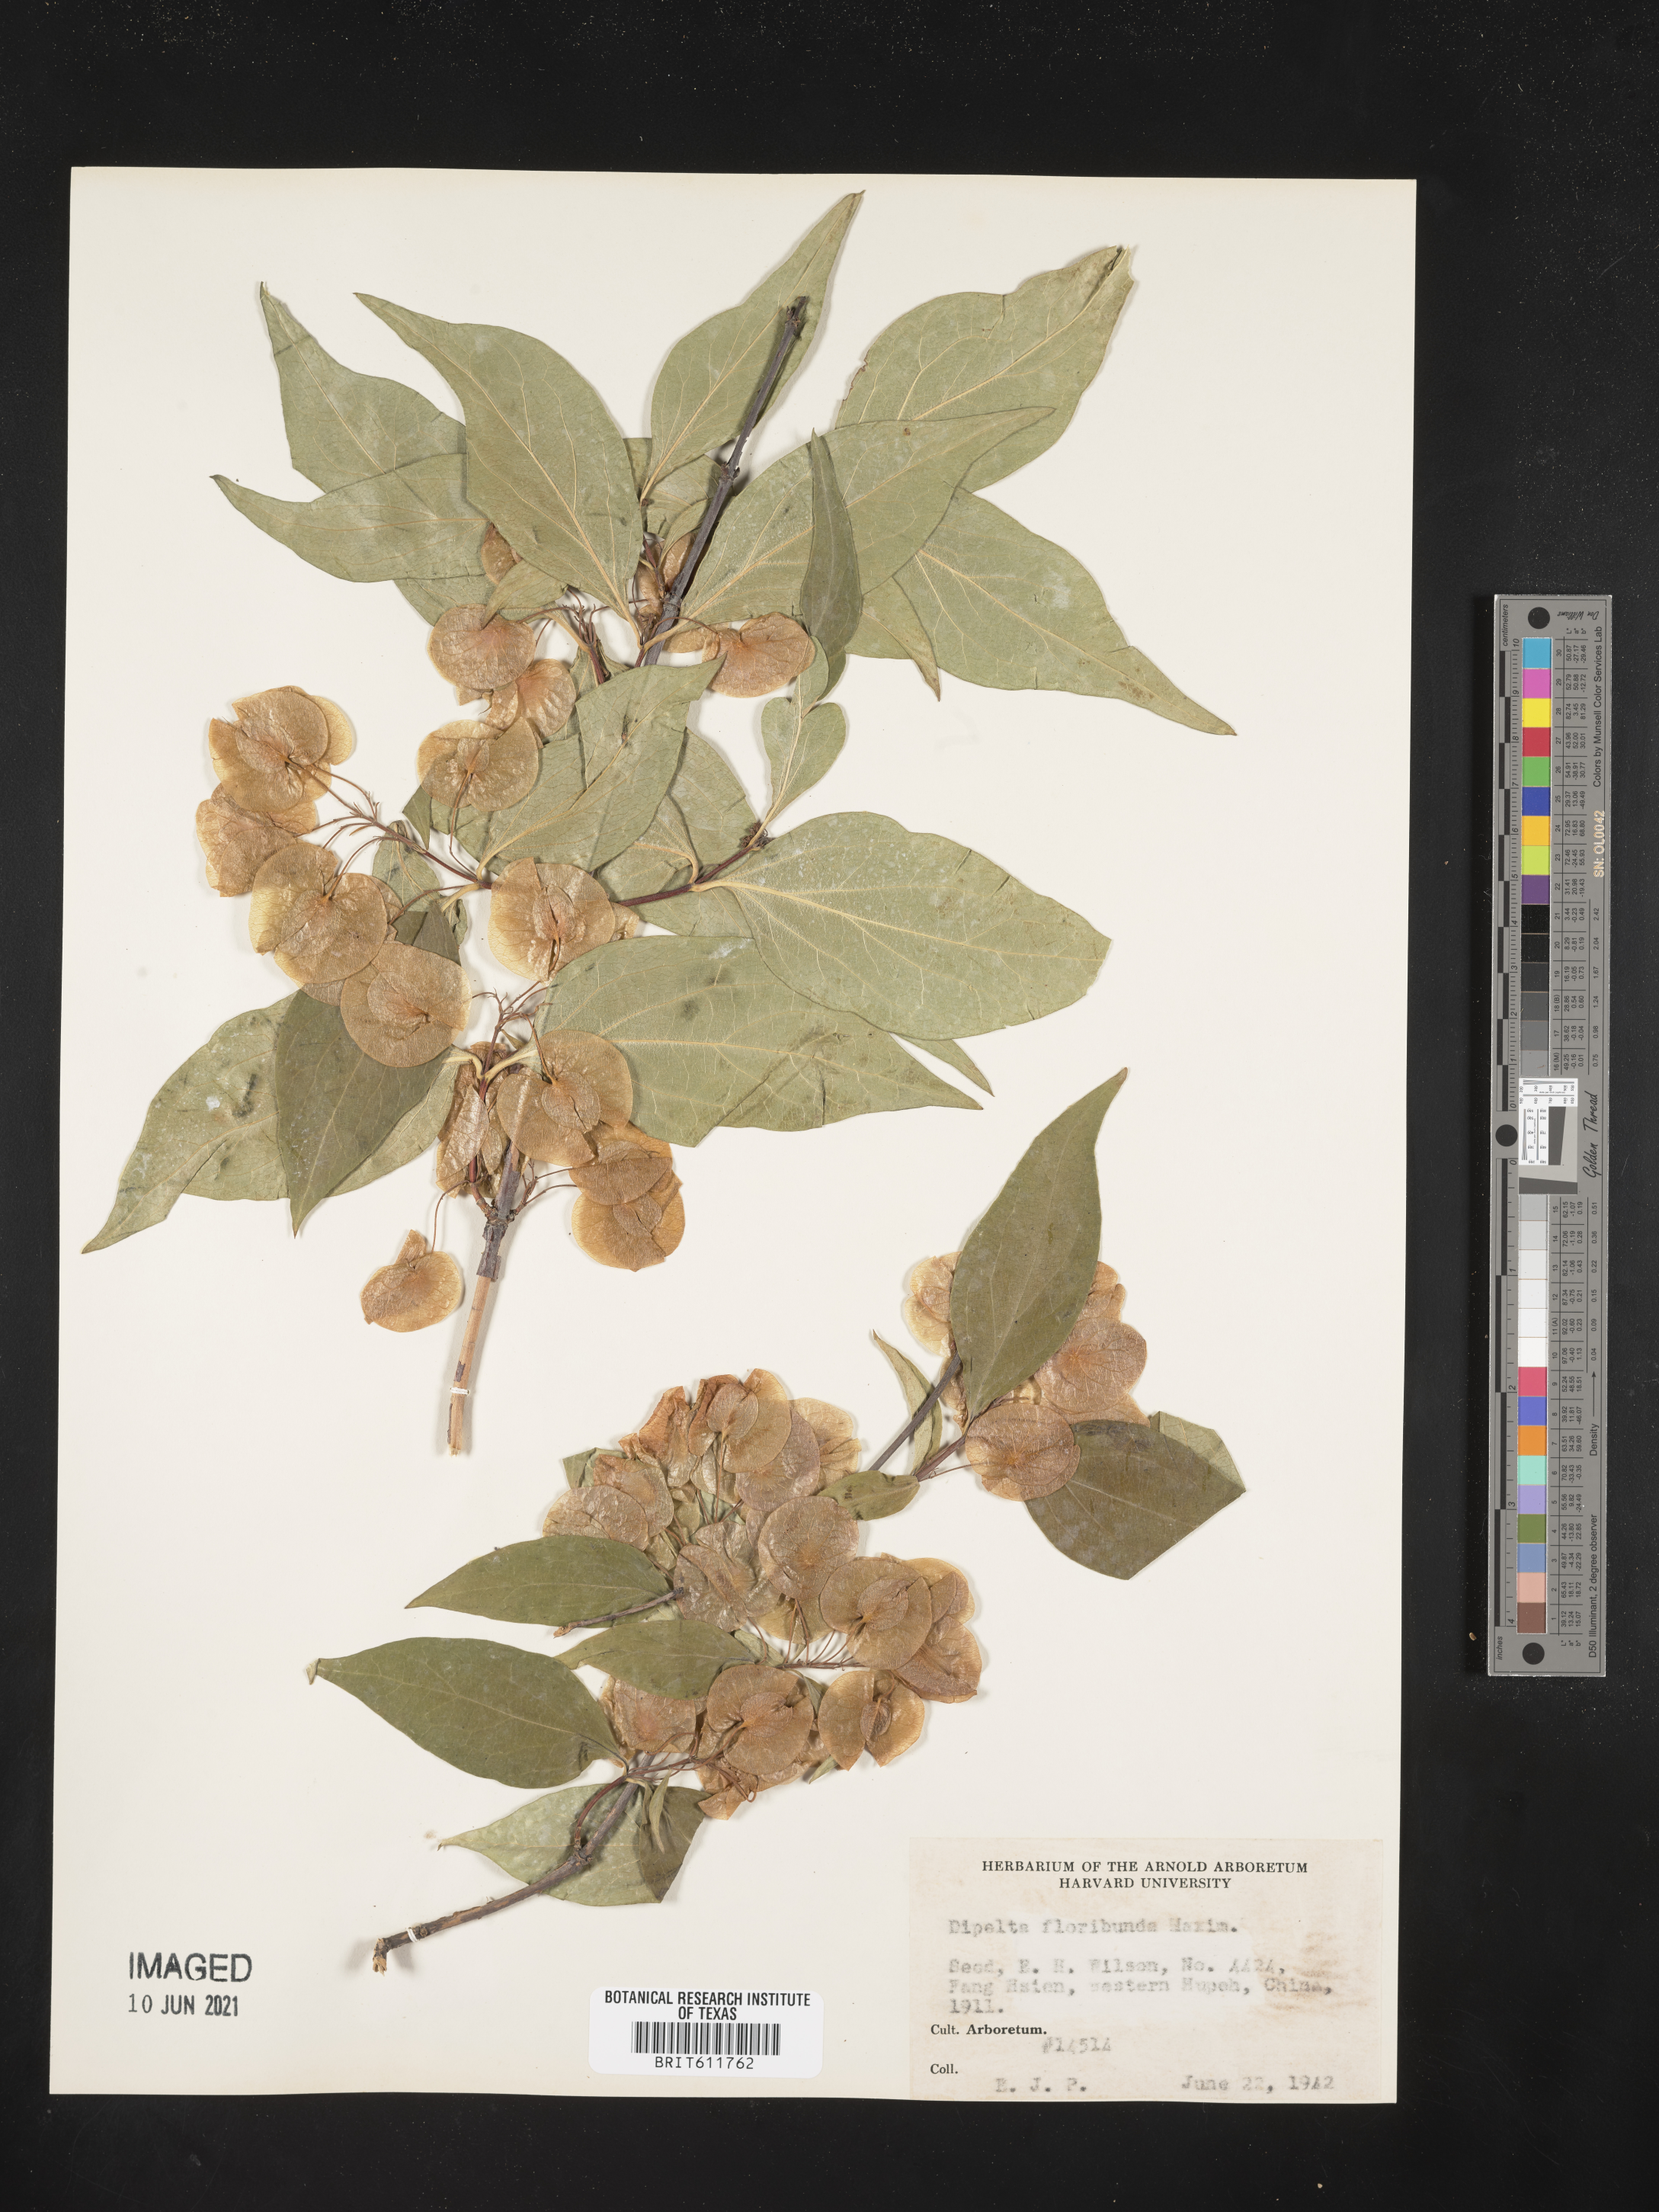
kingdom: Plantae
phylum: Tracheophyta
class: Magnoliopsida
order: Dipsacales
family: Caprifoliaceae
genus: Dipelta
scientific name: Dipelta floribunda
